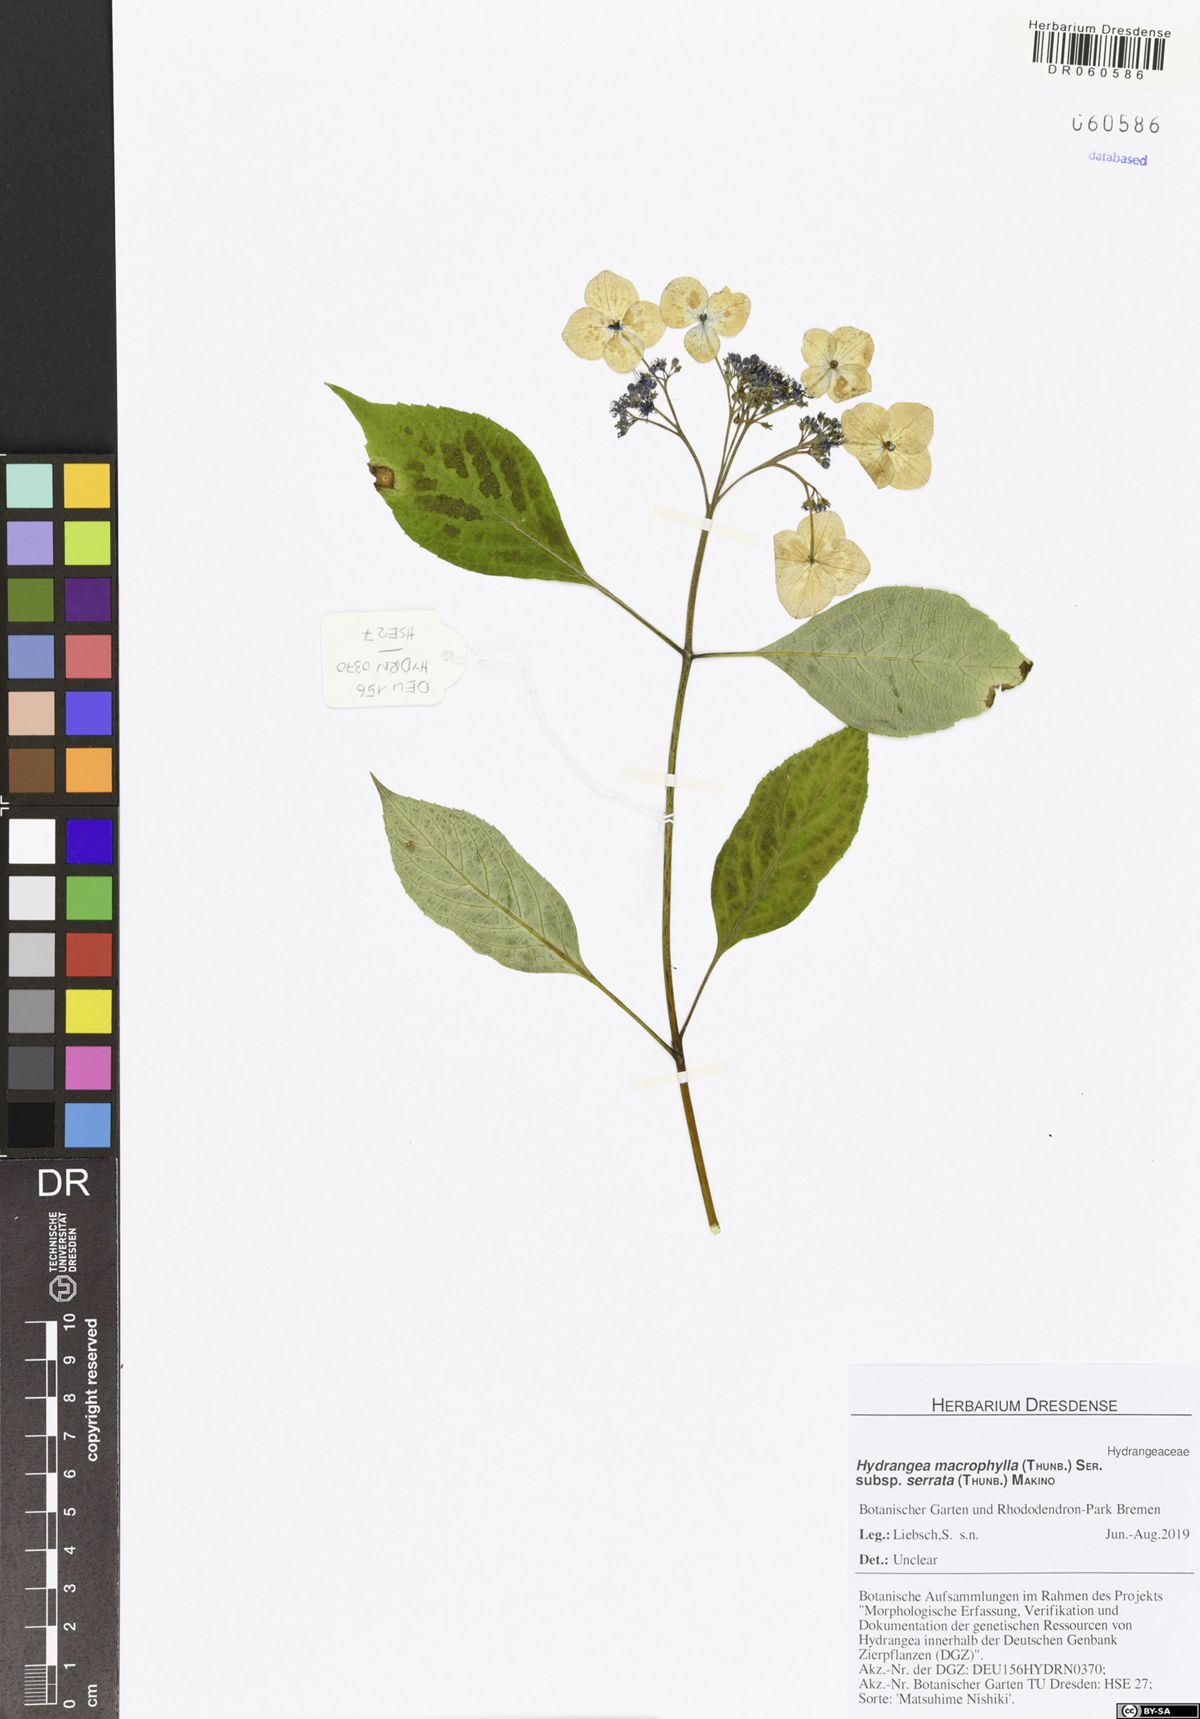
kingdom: Plantae
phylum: Tracheophyta
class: Magnoliopsida
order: Cornales
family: Hydrangeaceae
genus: Hydrangea
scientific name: Hydrangea serrata
